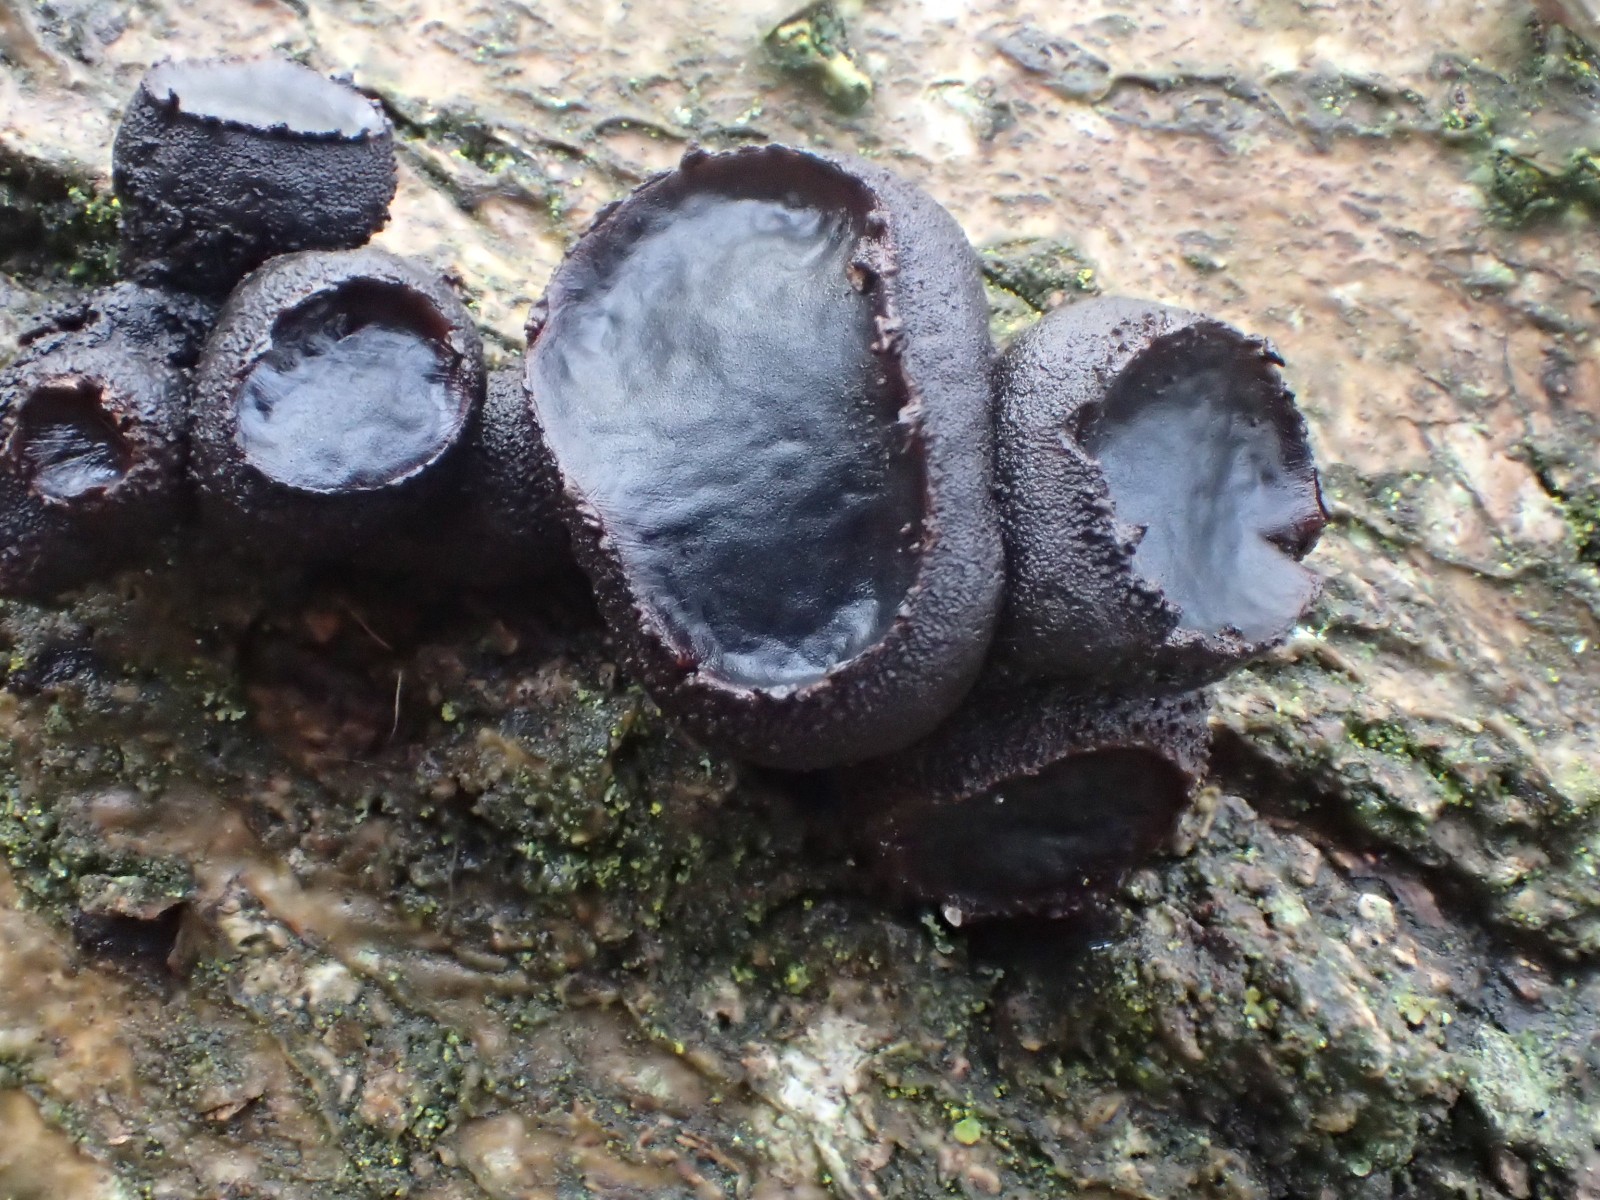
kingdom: Fungi
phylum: Ascomycota
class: Leotiomycetes
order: Phacidiales
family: Phacidiaceae
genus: Bulgaria
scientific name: Bulgaria inquinans
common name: afsmittende topsvamp
